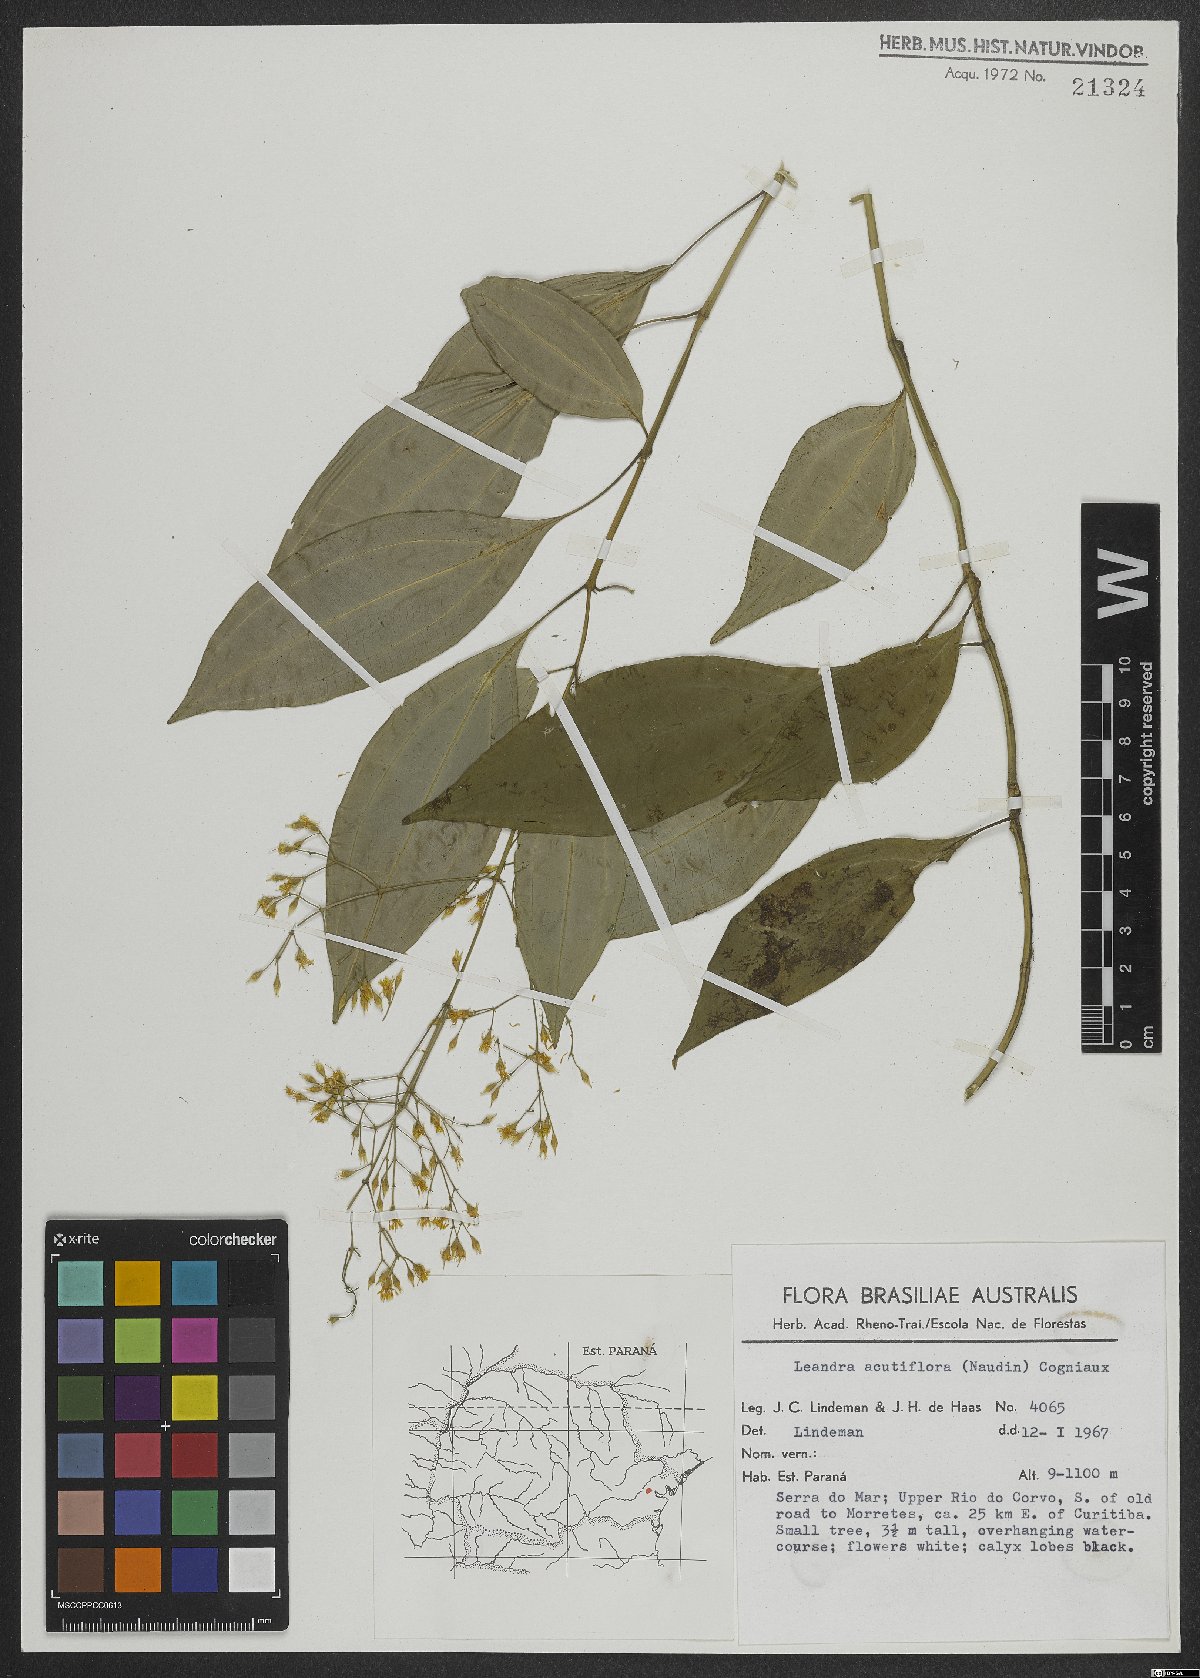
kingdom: Plantae
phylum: Tracheophyta
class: Magnoliopsida
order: Myrtales
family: Melastomataceae
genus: Miconia
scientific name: Miconia acutiflora
